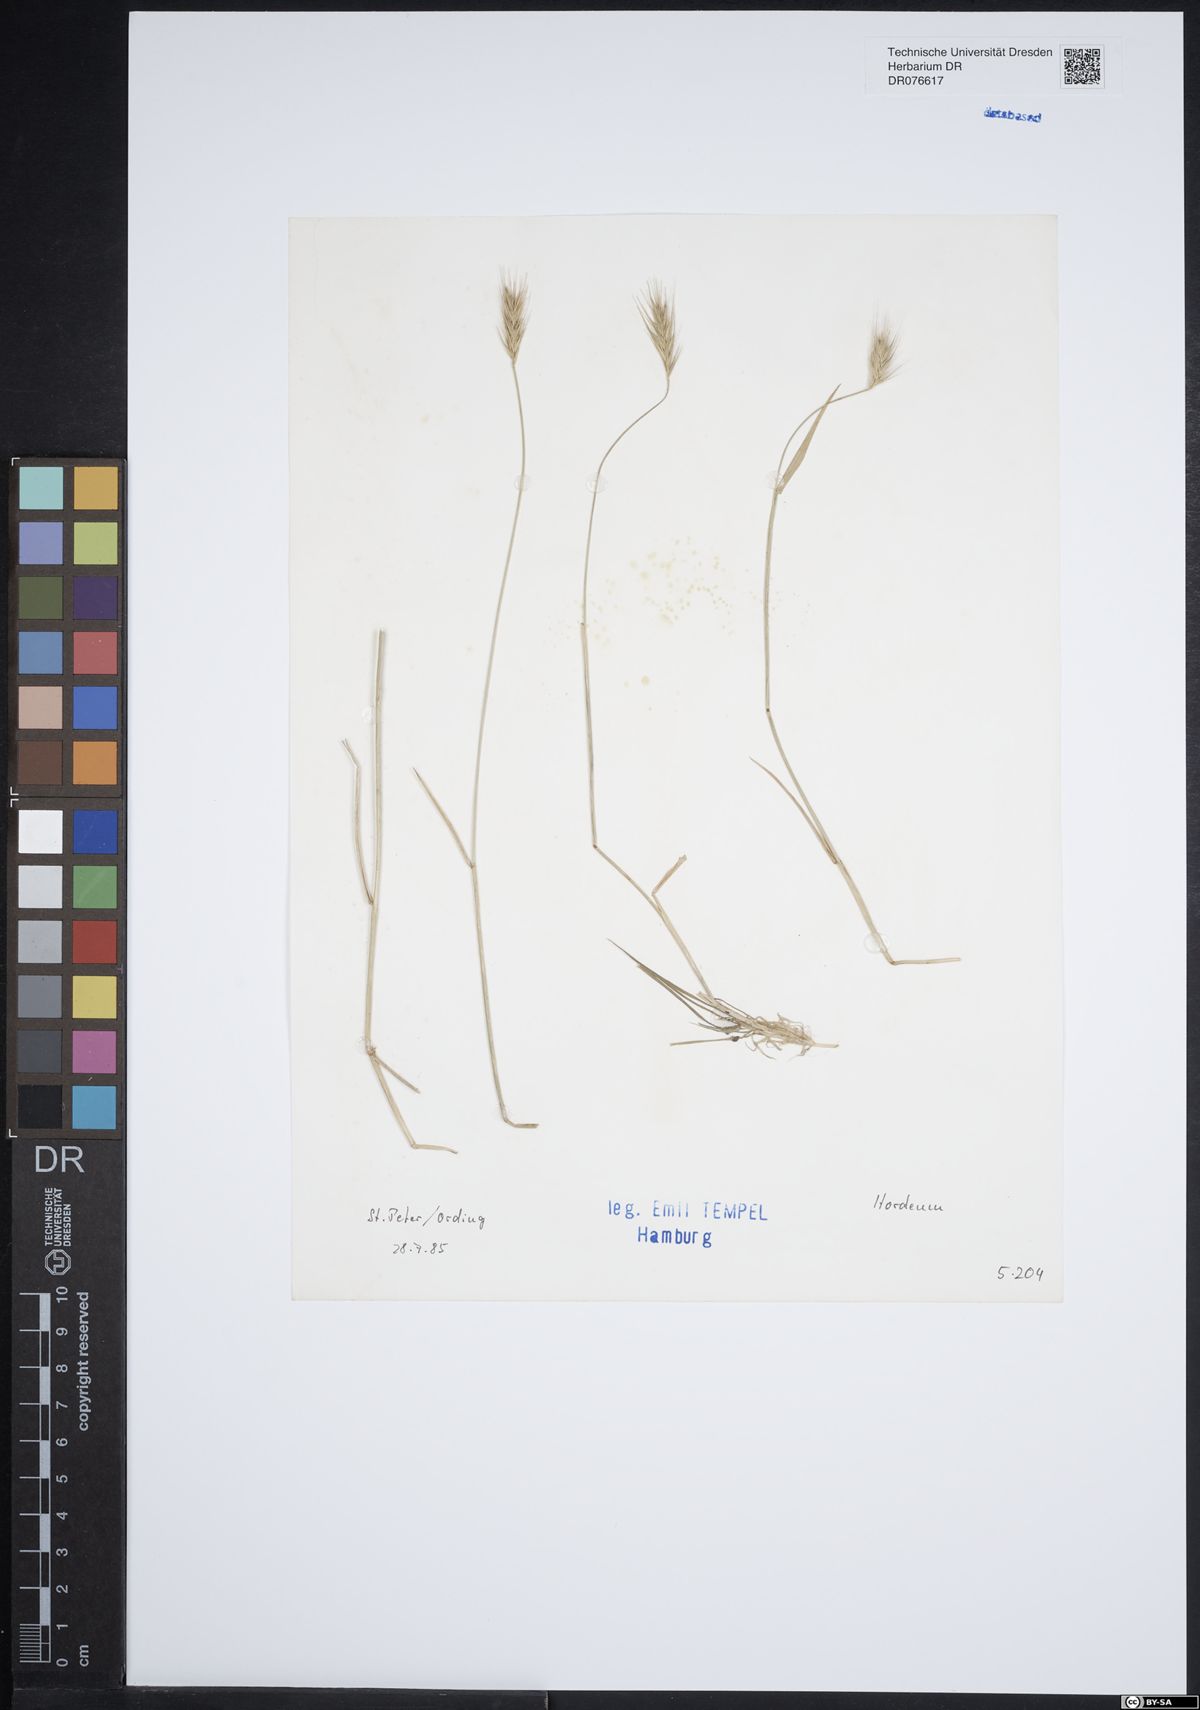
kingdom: Plantae
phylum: Tracheophyta
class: Liliopsida
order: Poales
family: Poaceae
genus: Hordeum
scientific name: Hordeum
